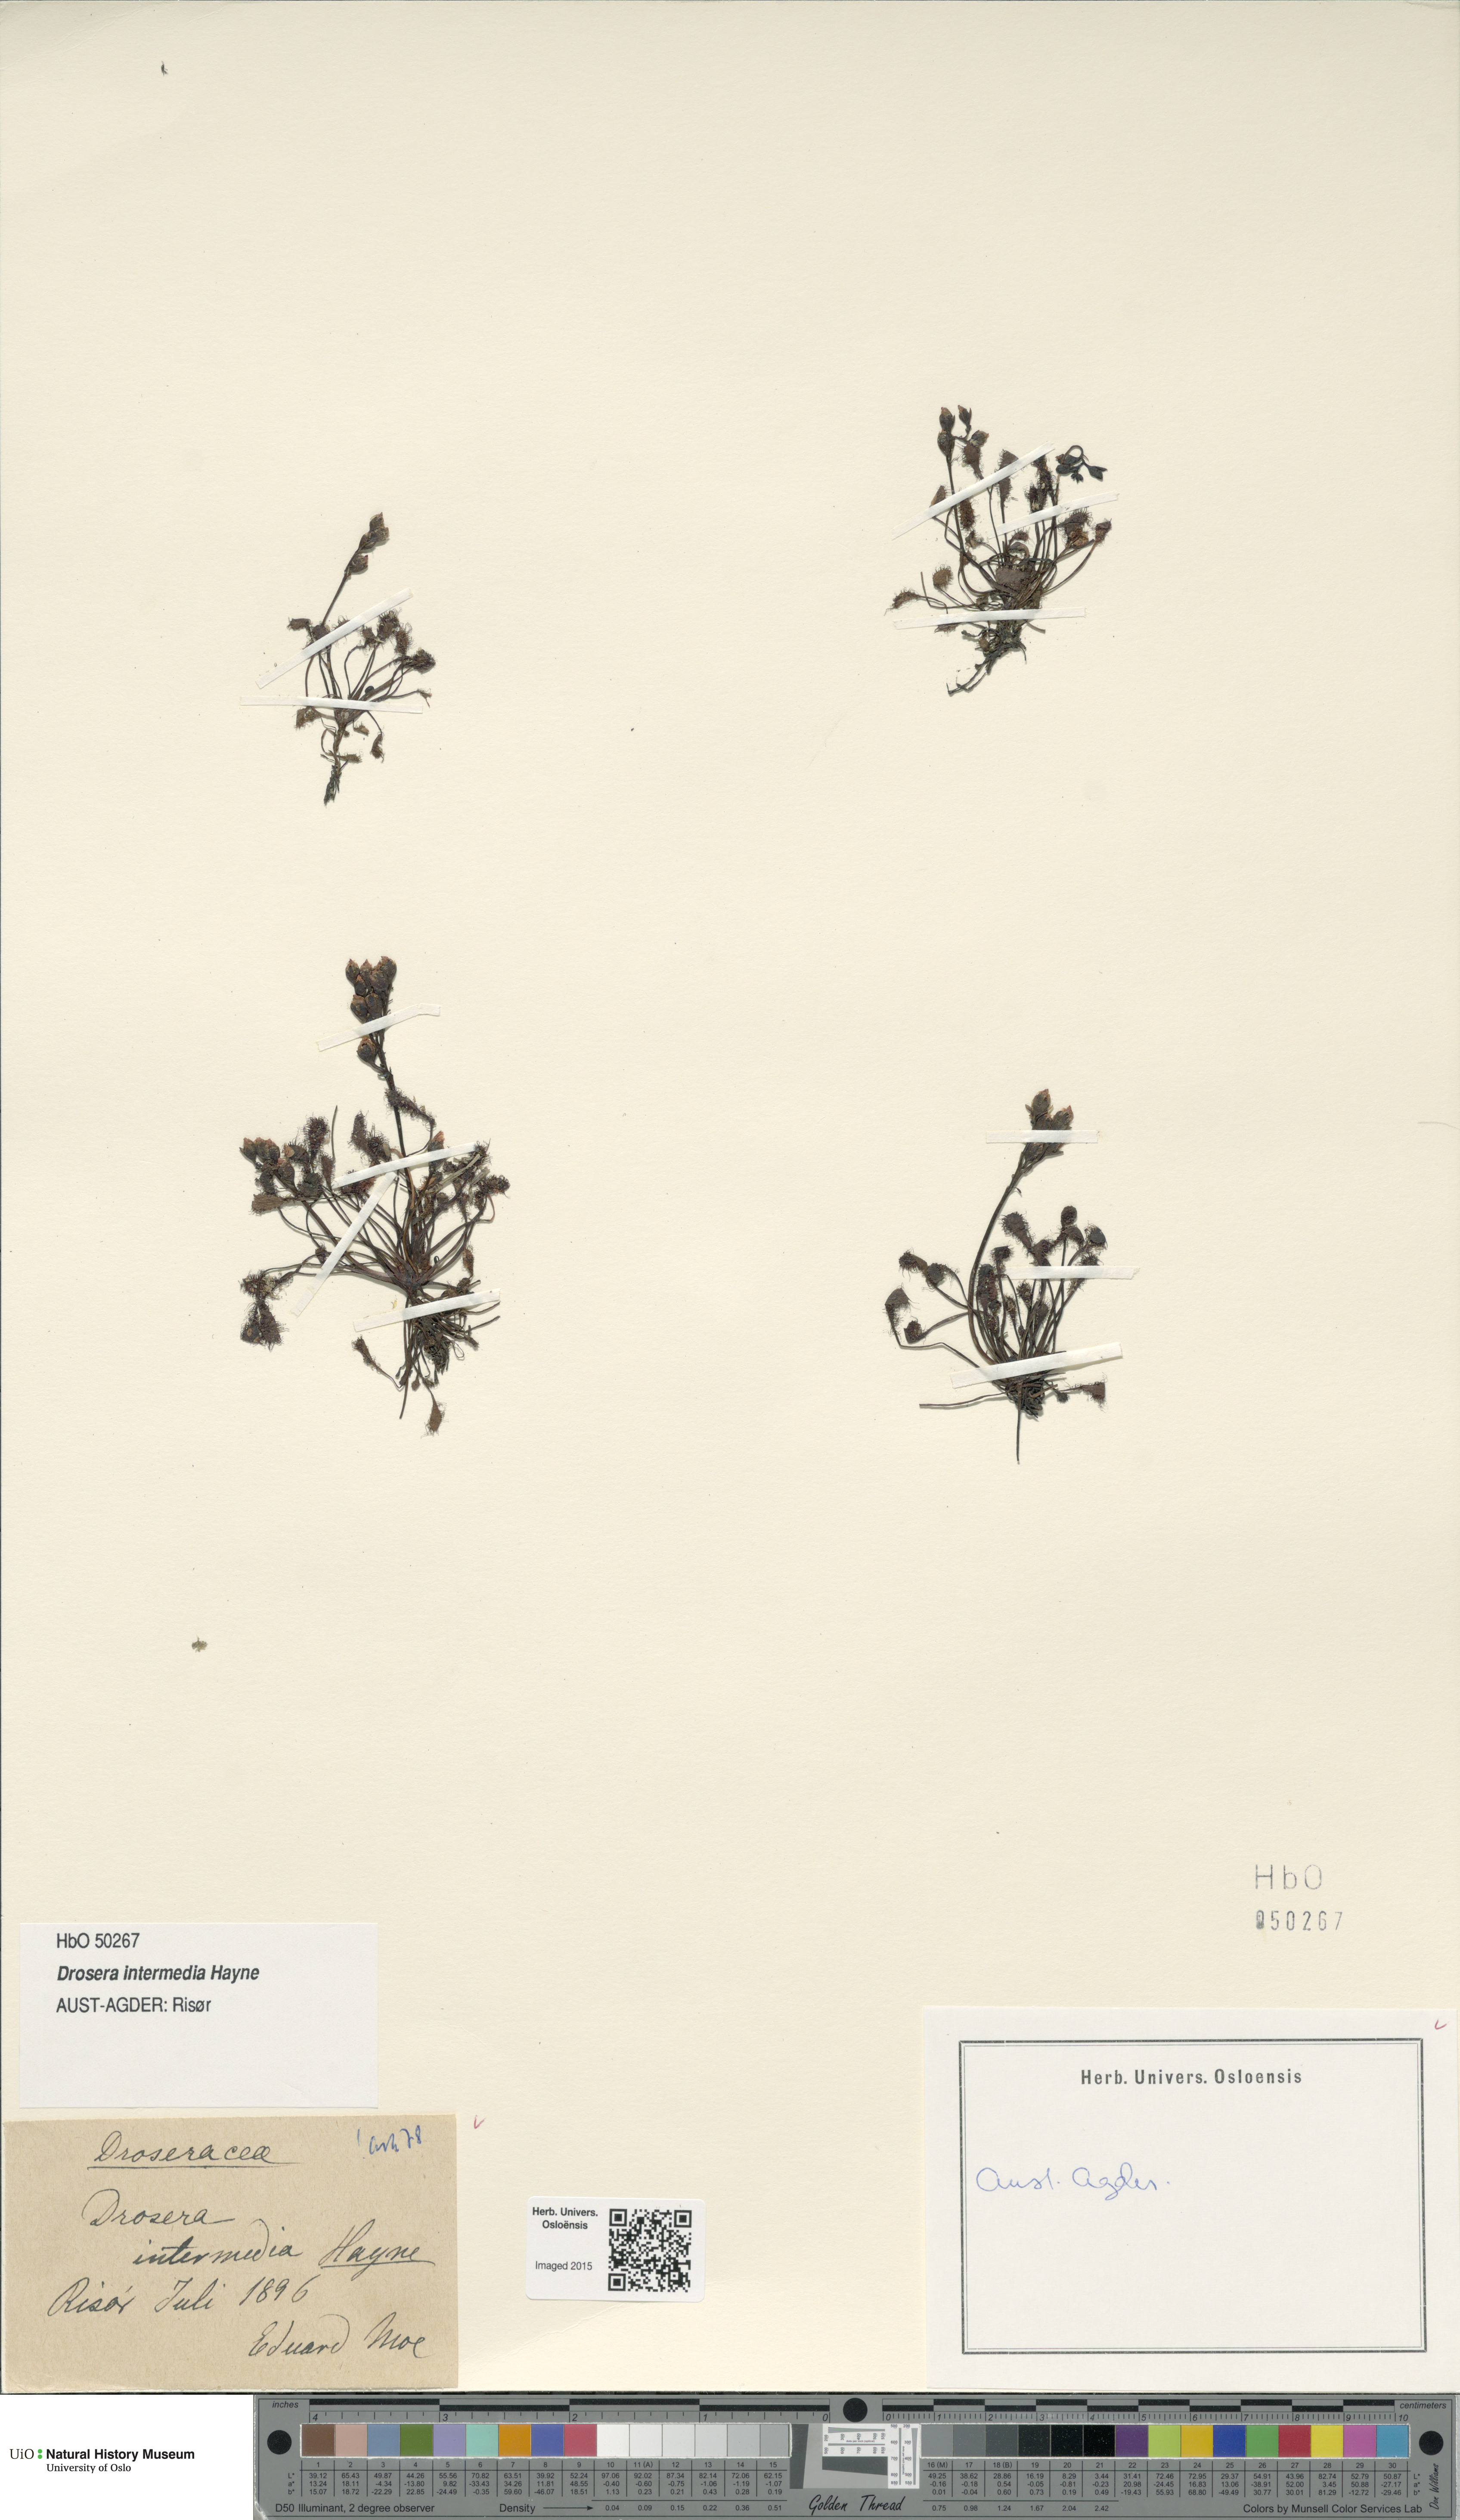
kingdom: Plantae
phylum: Tracheophyta
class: Magnoliopsida
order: Caryophyllales
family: Droseraceae
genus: Drosera
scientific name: Drosera intermedia
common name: Oblong-leaved sundew
